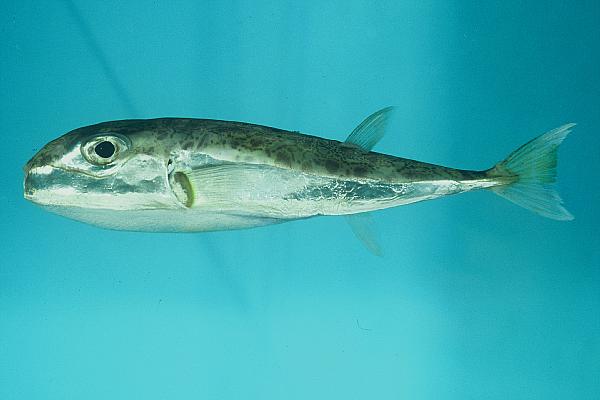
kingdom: Animalia
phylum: Chordata
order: Tetraodontiformes
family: Tetraodontidae
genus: Lagocephalus
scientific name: Lagocephalus sceleratus
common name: Silverstripe blaasop
